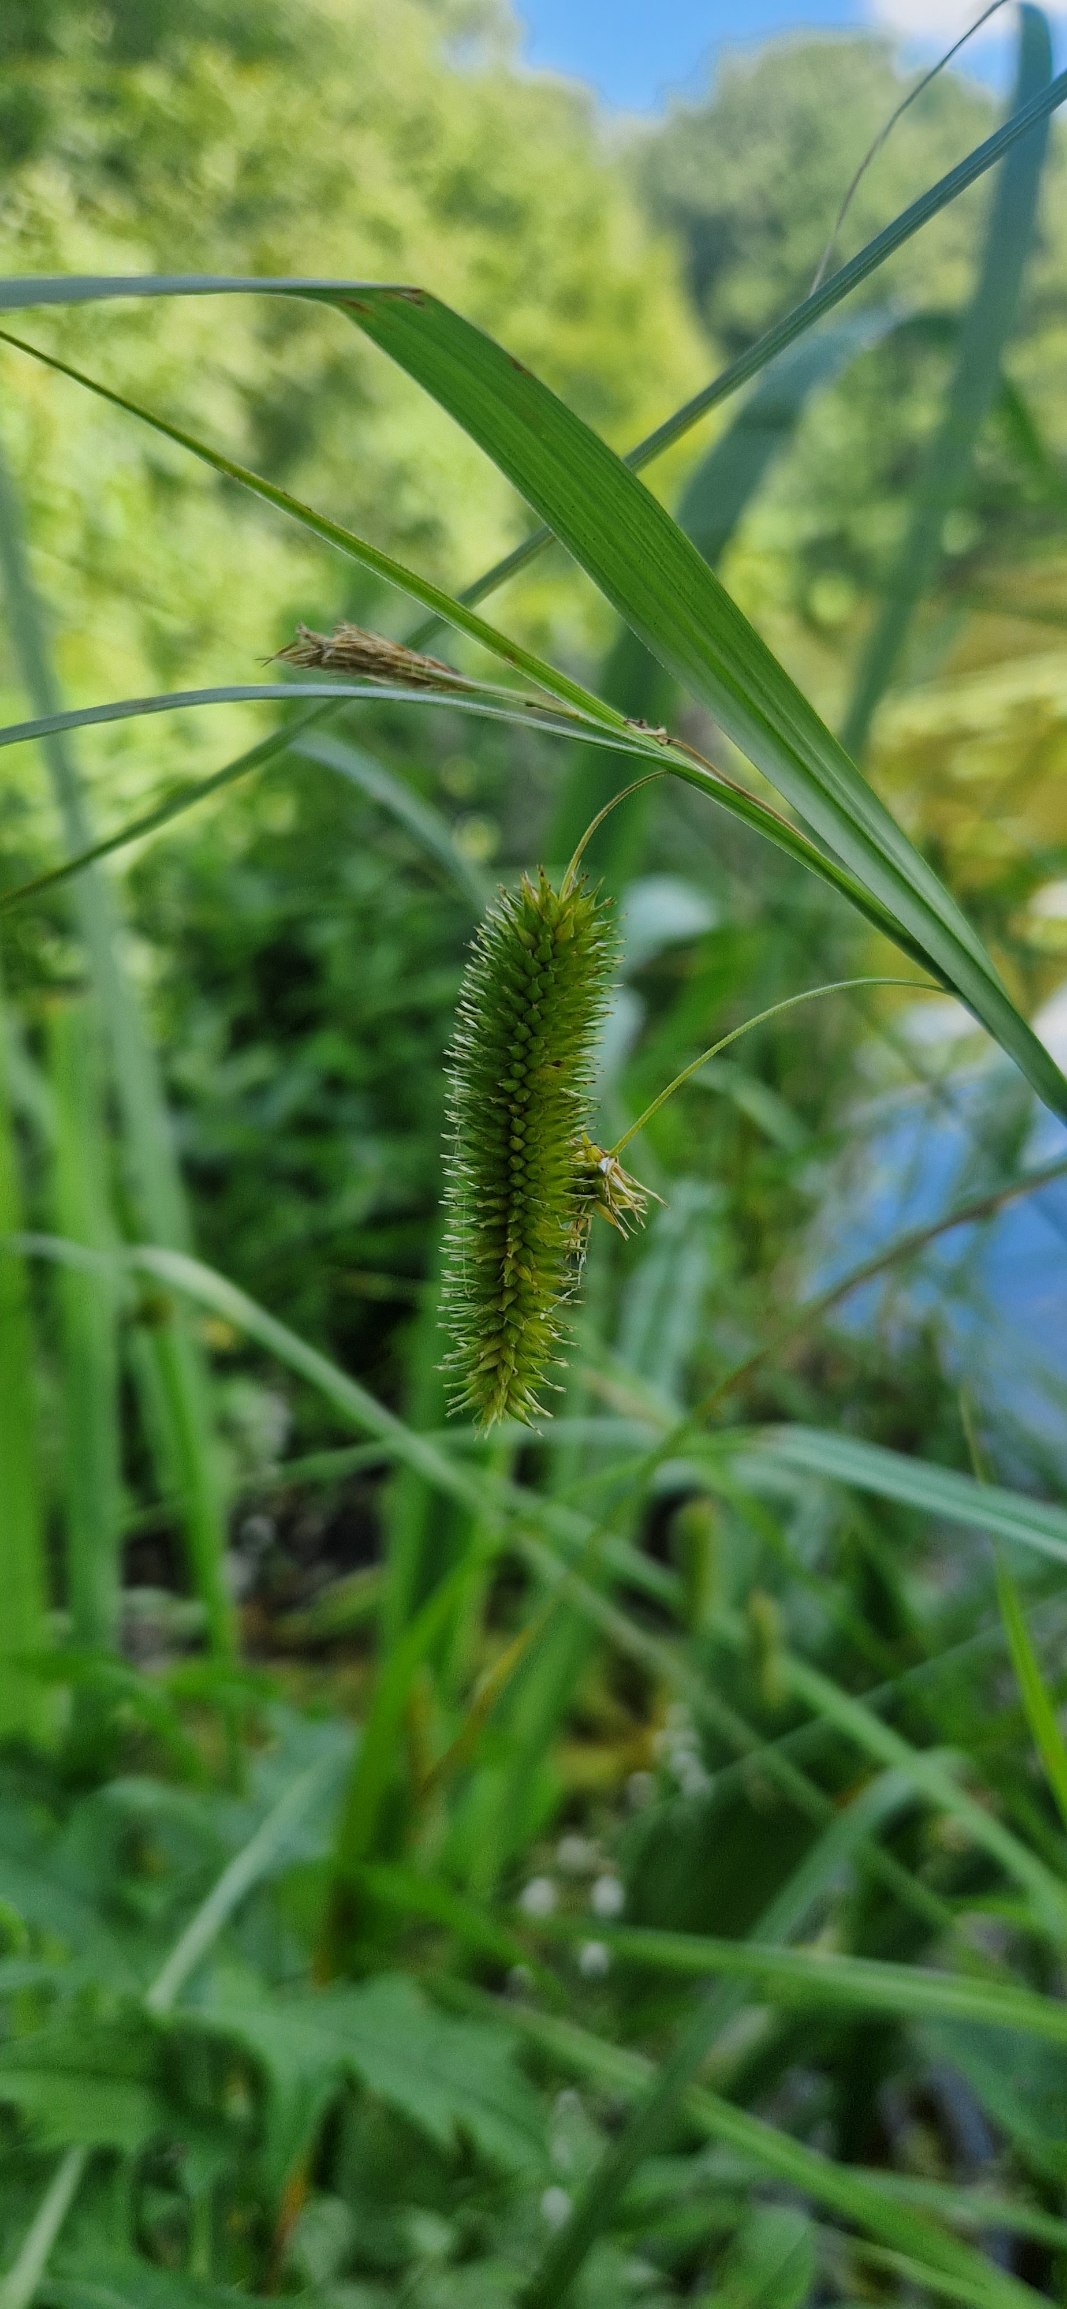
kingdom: Plantae
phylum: Tracheophyta
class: Liliopsida
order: Poales
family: Cyperaceae
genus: Carex
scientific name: Carex pseudocyperus
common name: Knippe-star
